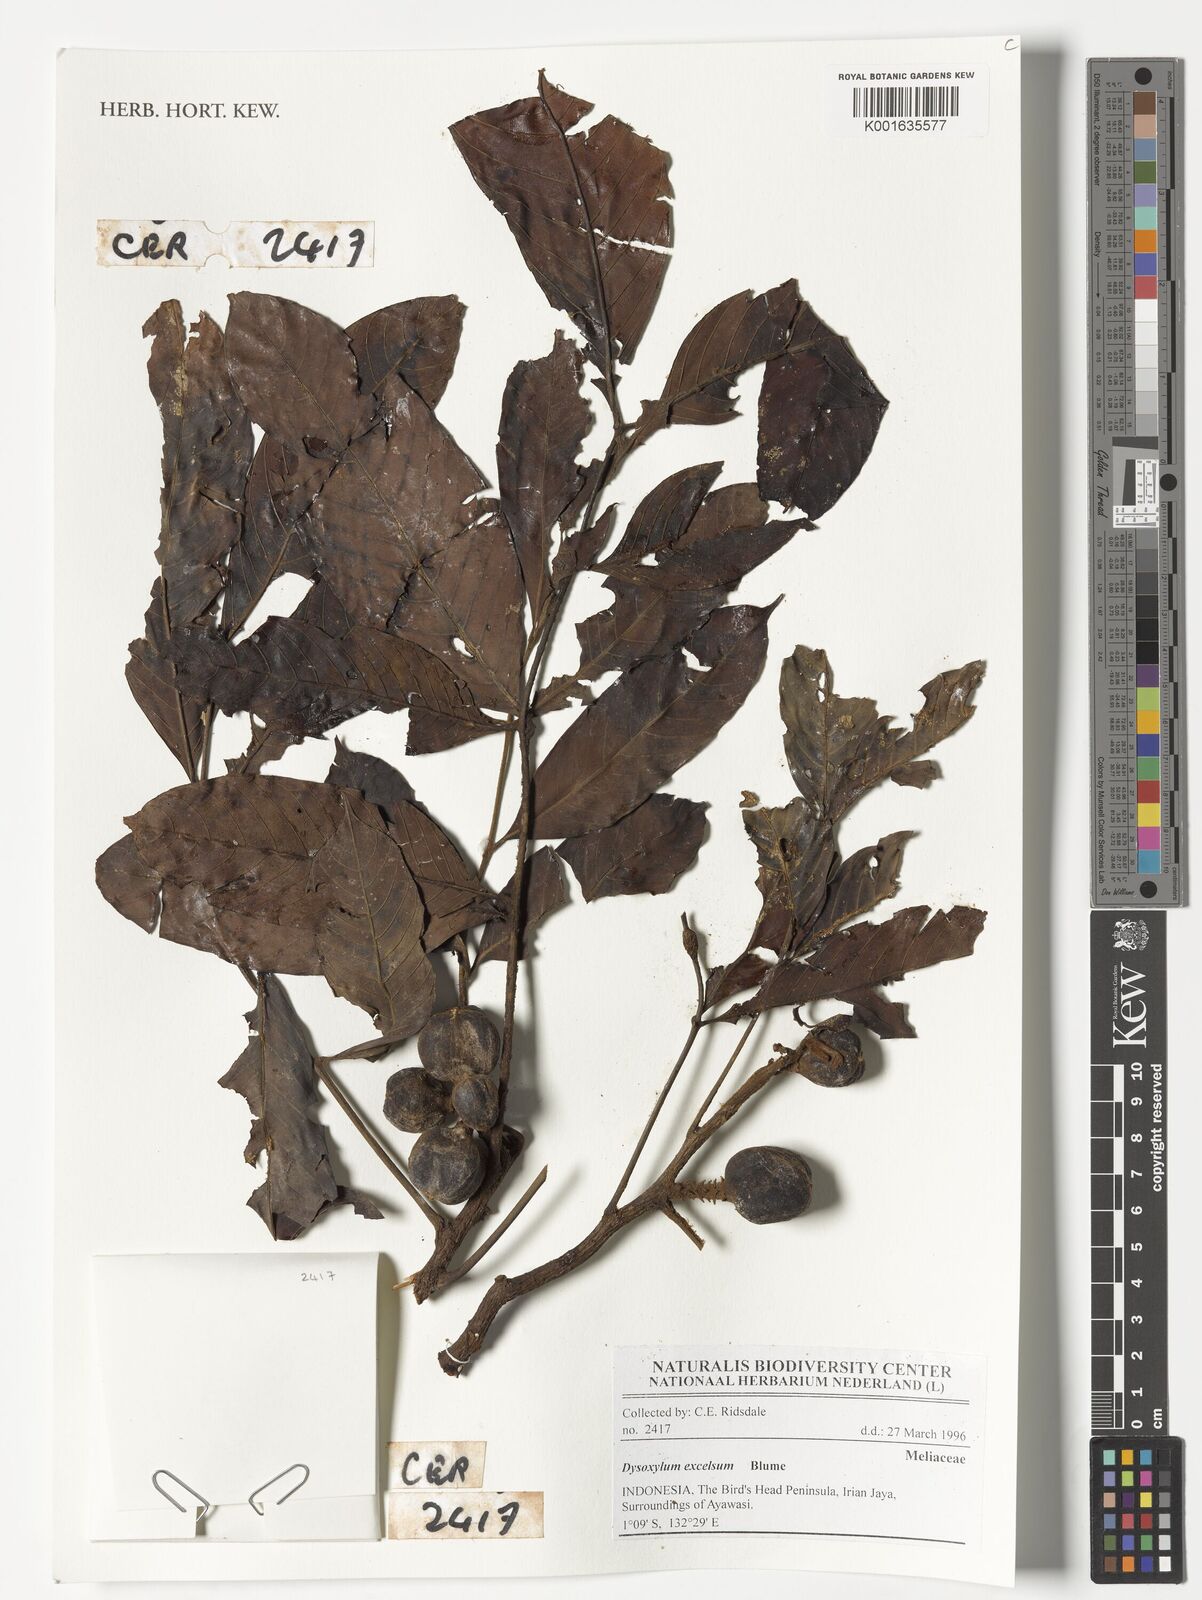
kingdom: Plantae
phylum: Tracheophyta
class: Magnoliopsida
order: Sapindales
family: Meliaceae
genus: Dysoxylum
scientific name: Dysoxylum excelsum
